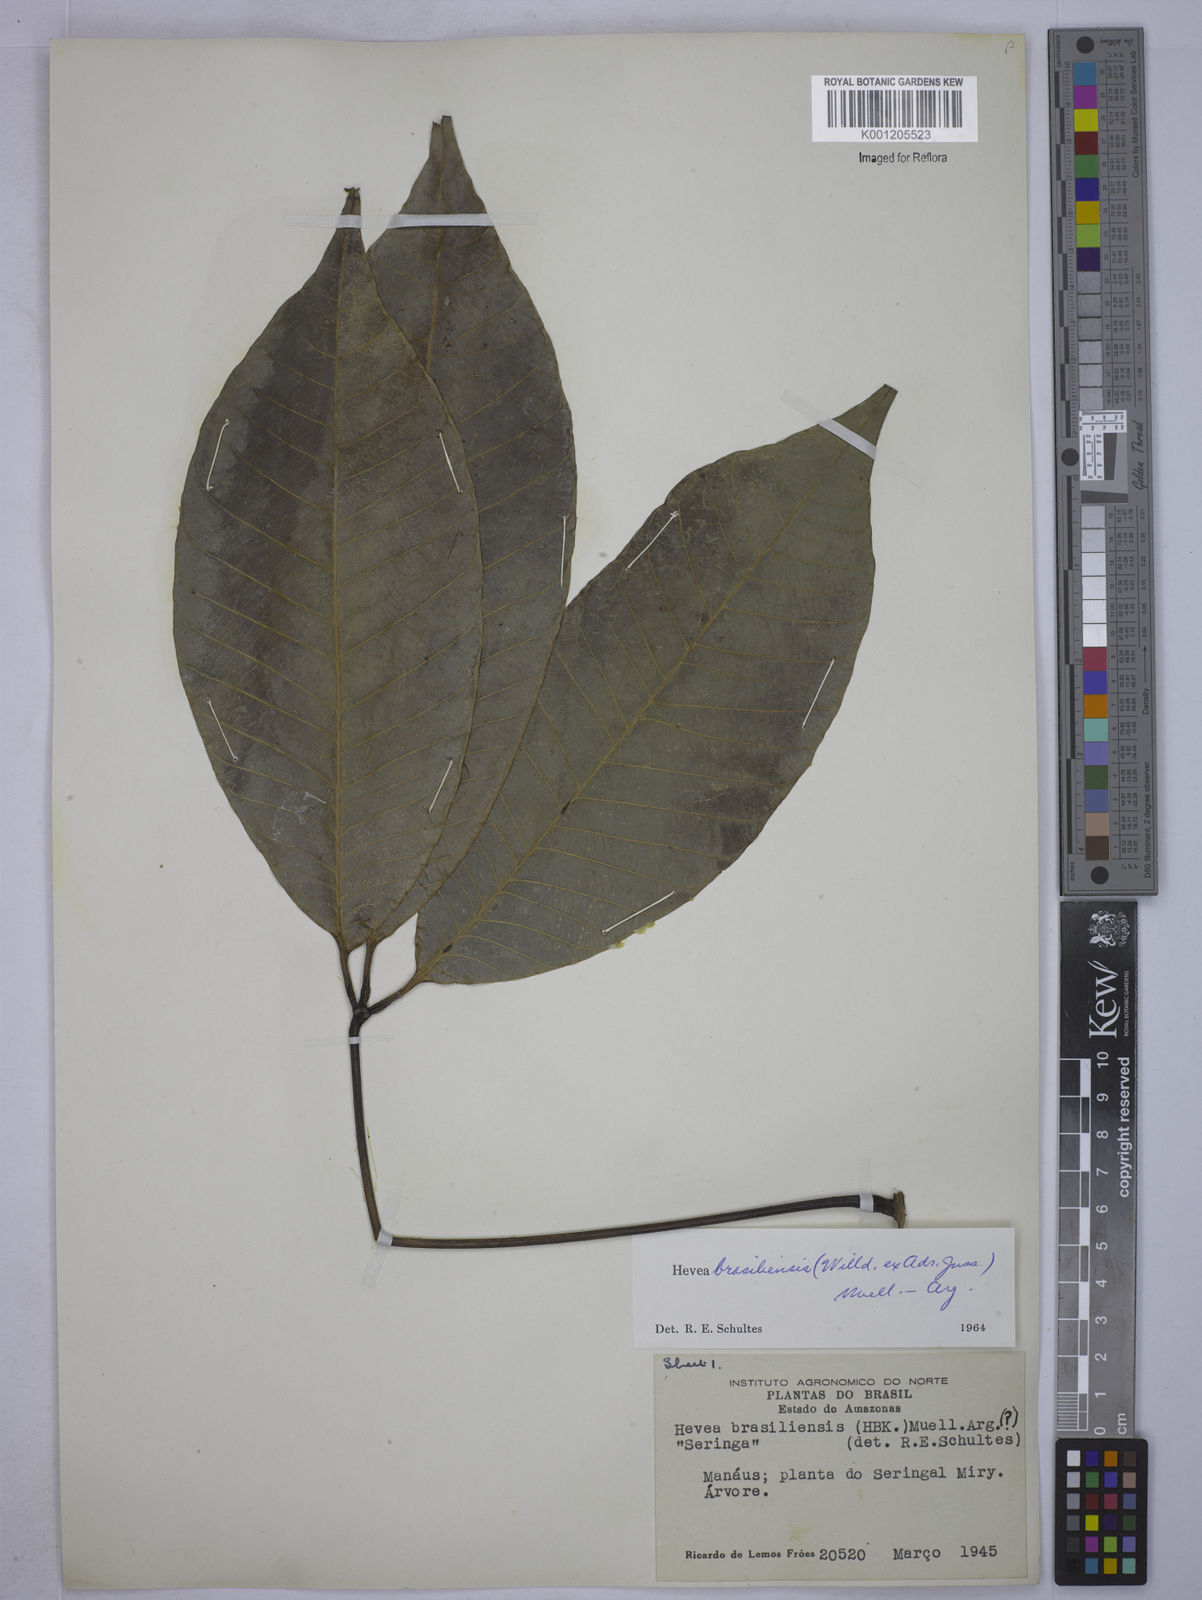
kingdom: Plantae
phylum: Tracheophyta
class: Magnoliopsida
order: Malpighiales
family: Euphorbiaceae
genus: Hevea
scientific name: Hevea
